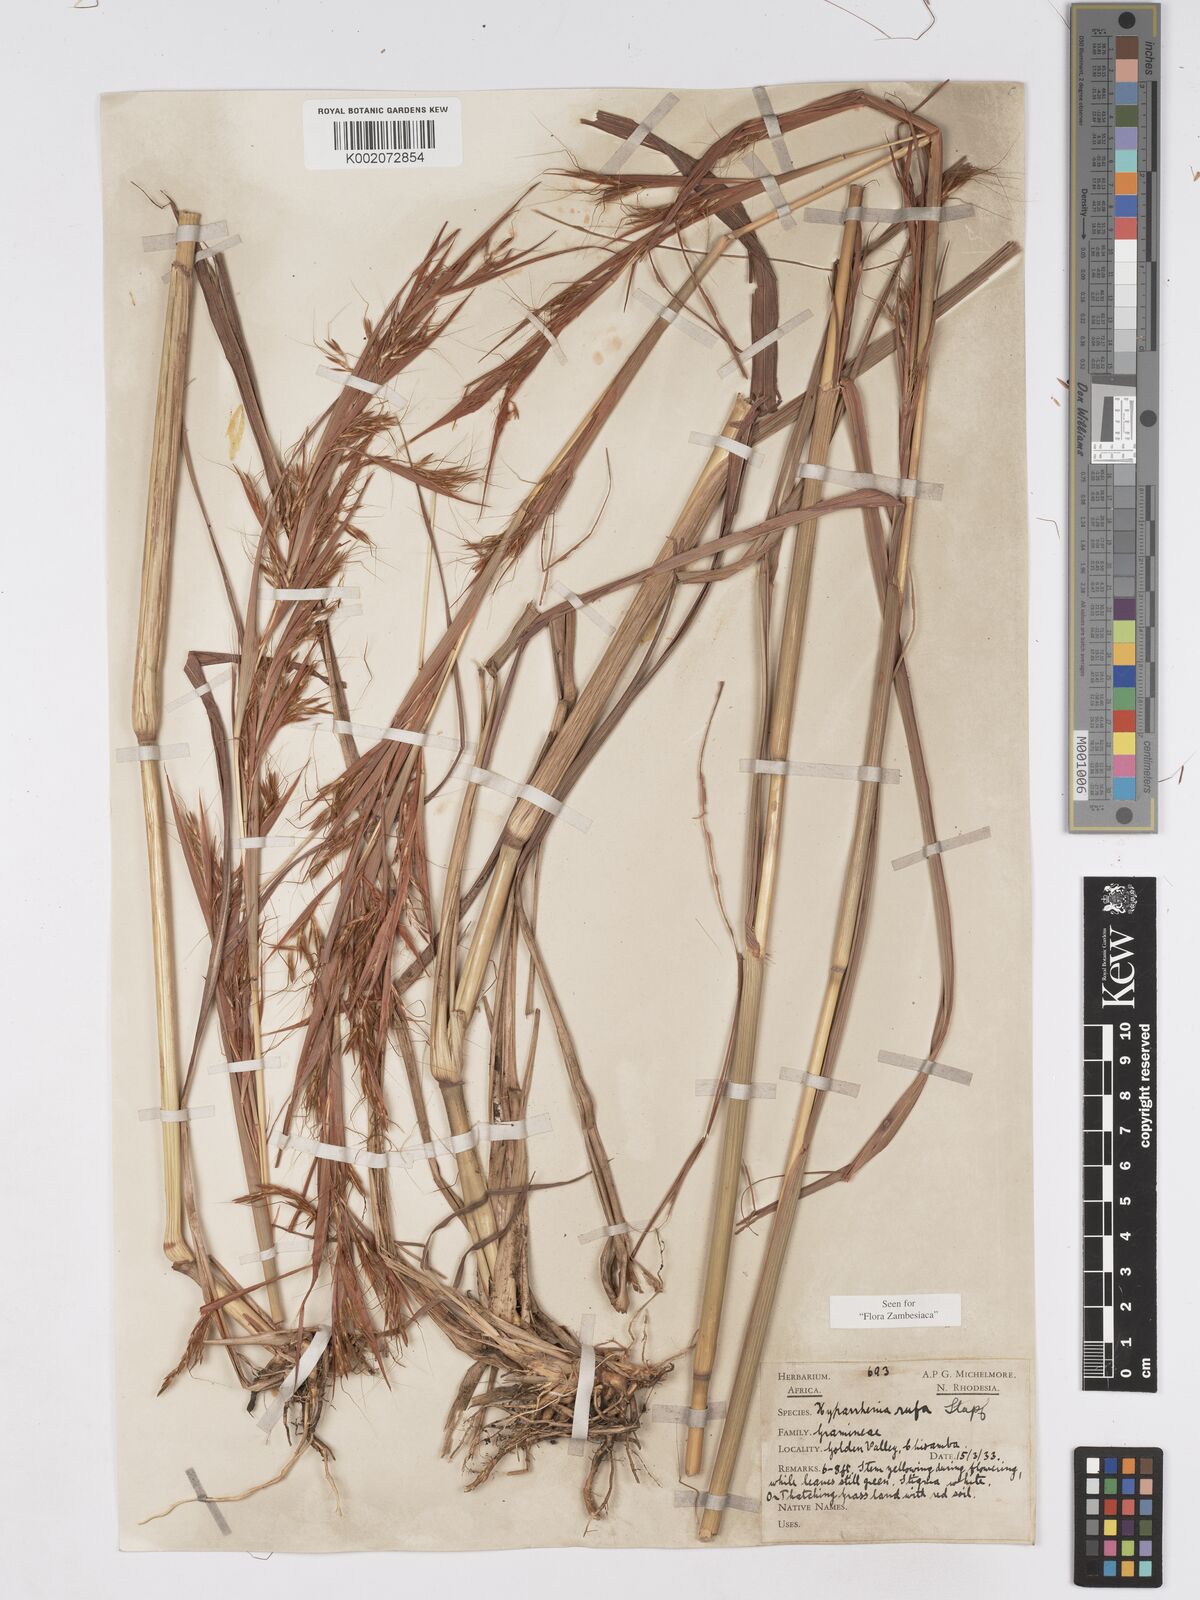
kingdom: Plantae
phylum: Tracheophyta
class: Liliopsida
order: Poales
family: Poaceae
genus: Hyparrhenia
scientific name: Hyparrhenia rufa
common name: Jaraguagrass
